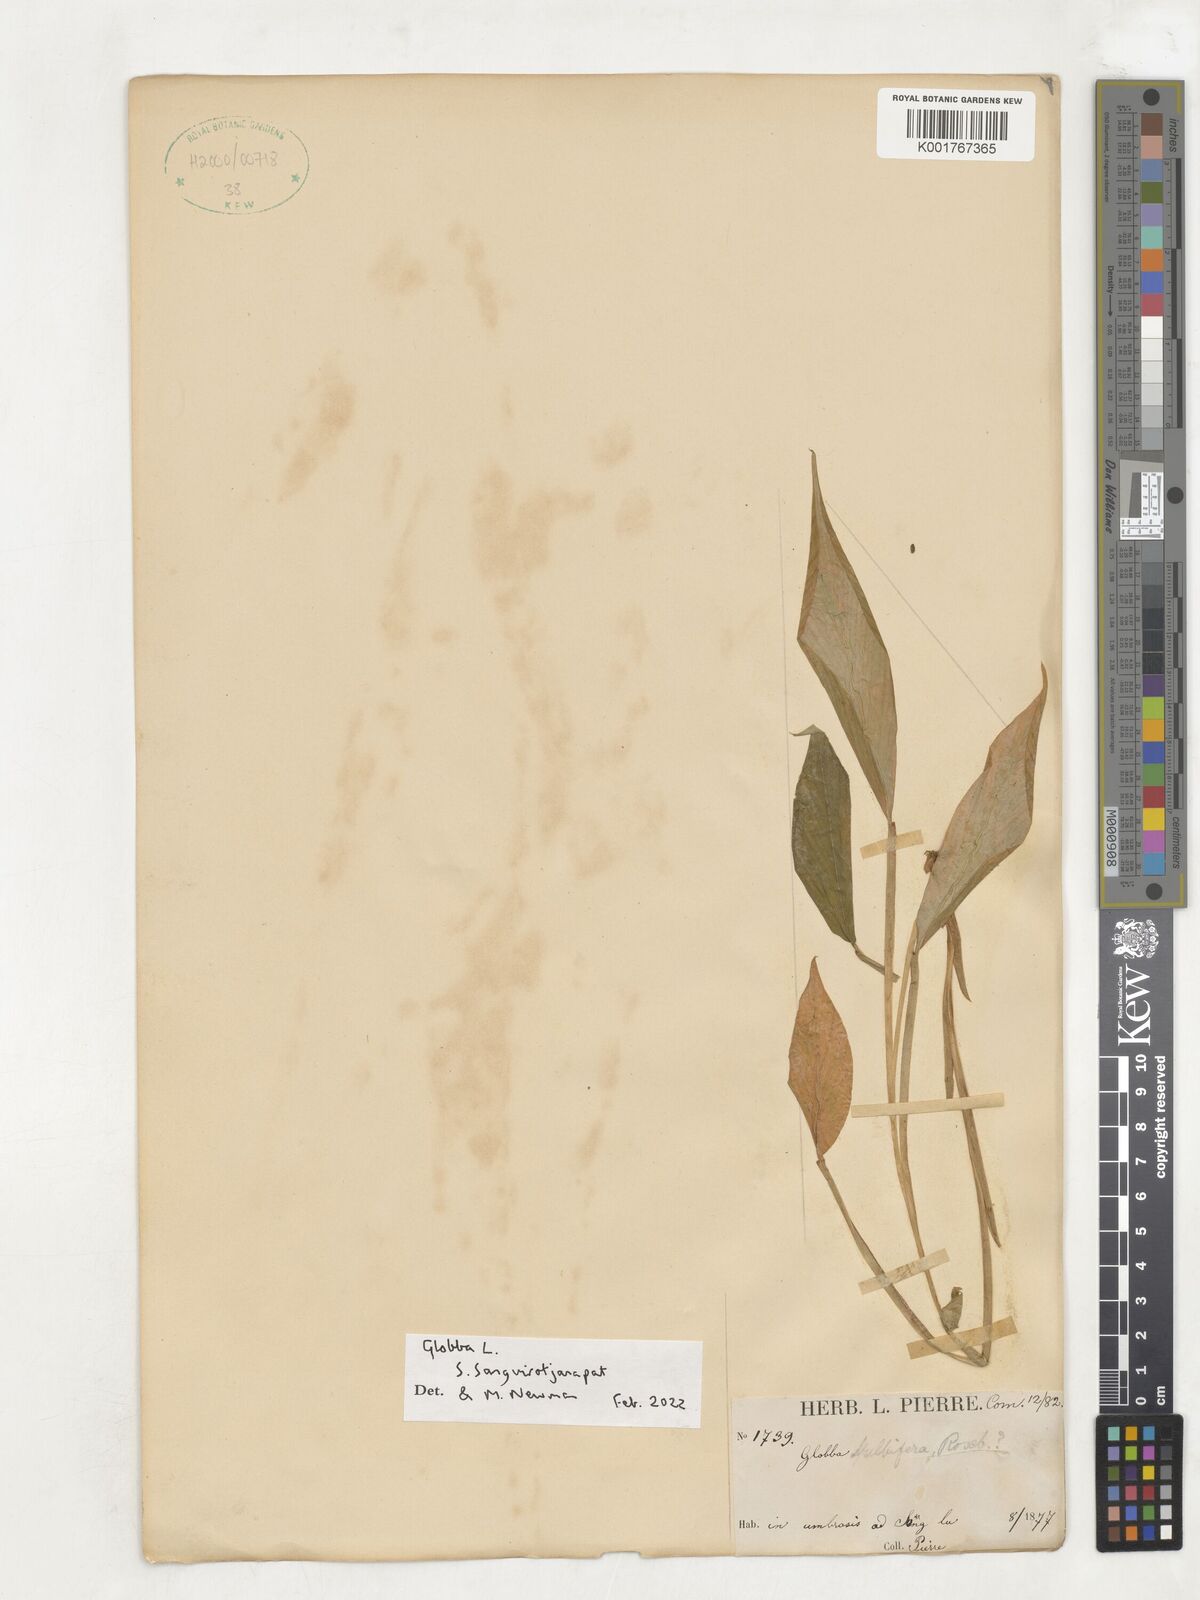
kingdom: Plantae
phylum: Tracheophyta
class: Liliopsida
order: Zingiberales
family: Zingiberaceae
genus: Globba
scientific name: Globba
